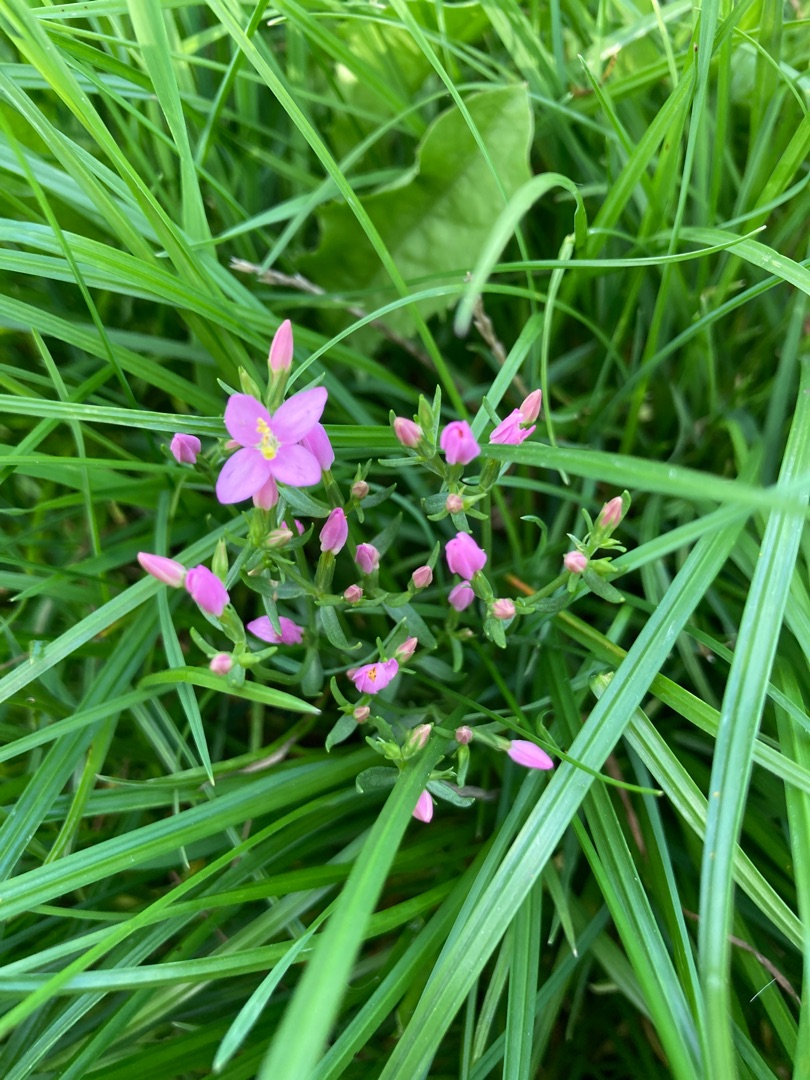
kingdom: Plantae
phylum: Tracheophyta
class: Magnoliopsida
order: Gentianales
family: Gentianaceae
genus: Centaurium
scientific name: Centaurium erythraea
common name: Mark-tusindgylden
